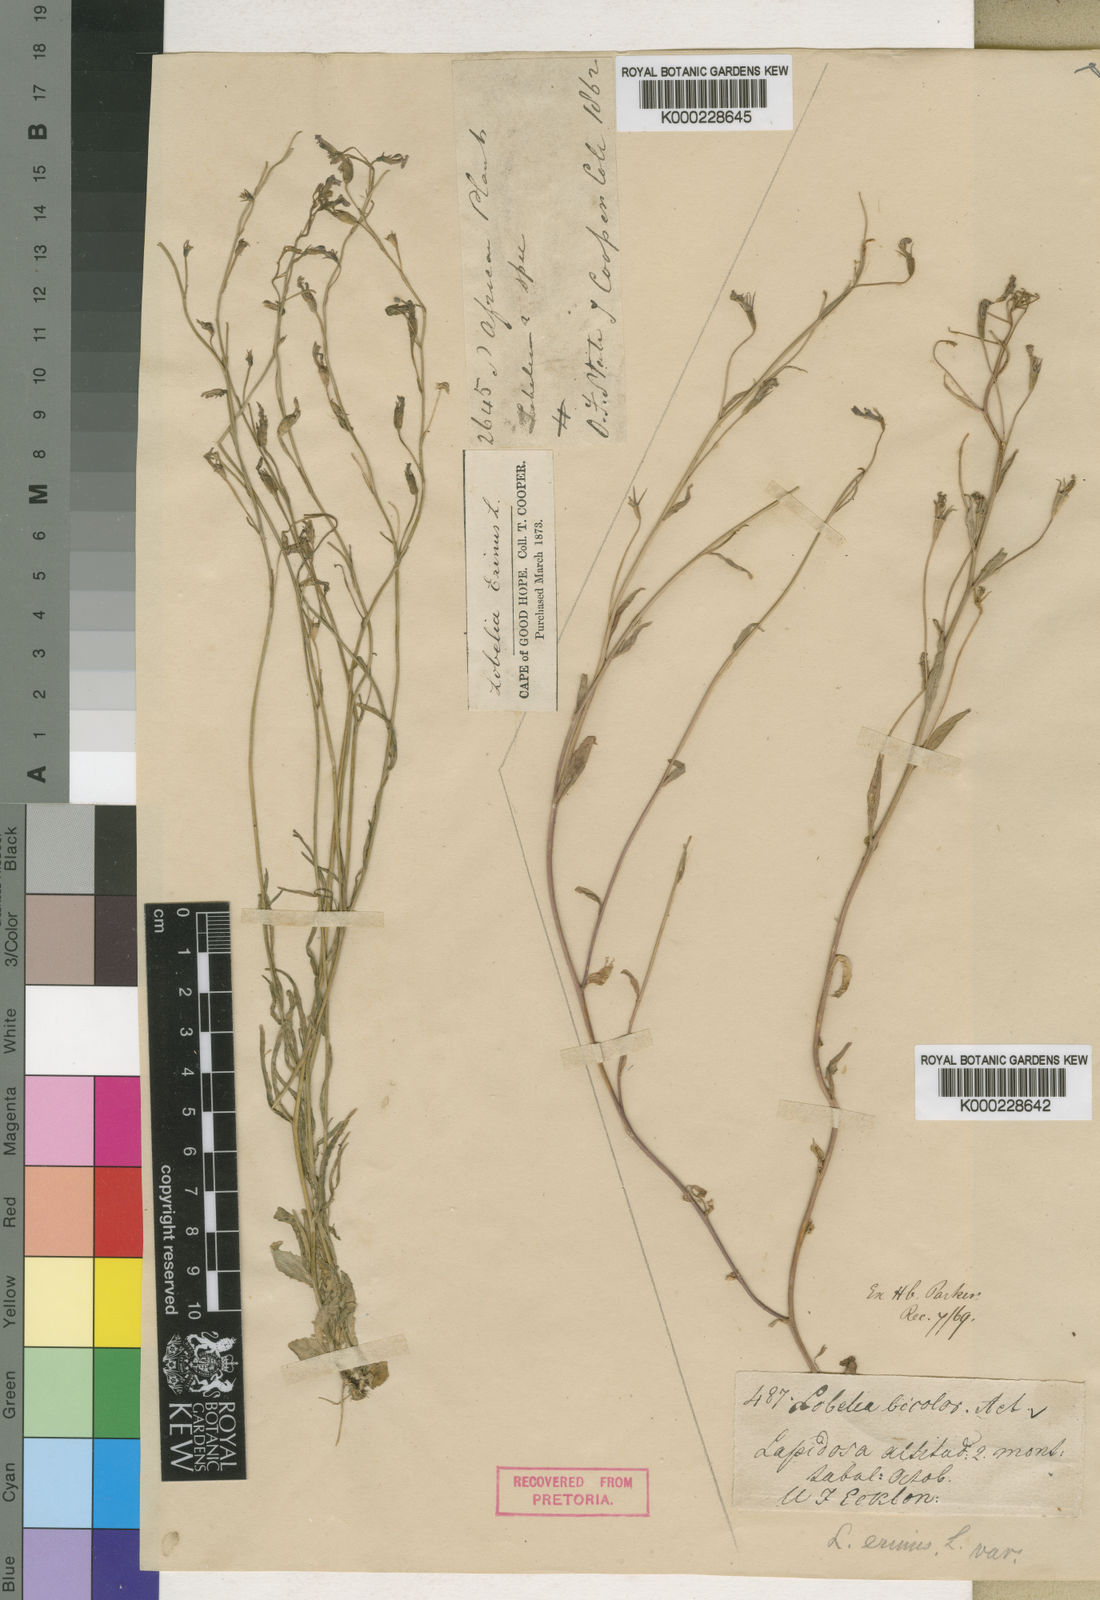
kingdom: Plantae
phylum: Tracheophyta
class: Magnoliopsida
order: Asterales
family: Campanulaceae
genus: Lobelia
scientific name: Lobelia erinus
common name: Edging lobelia
